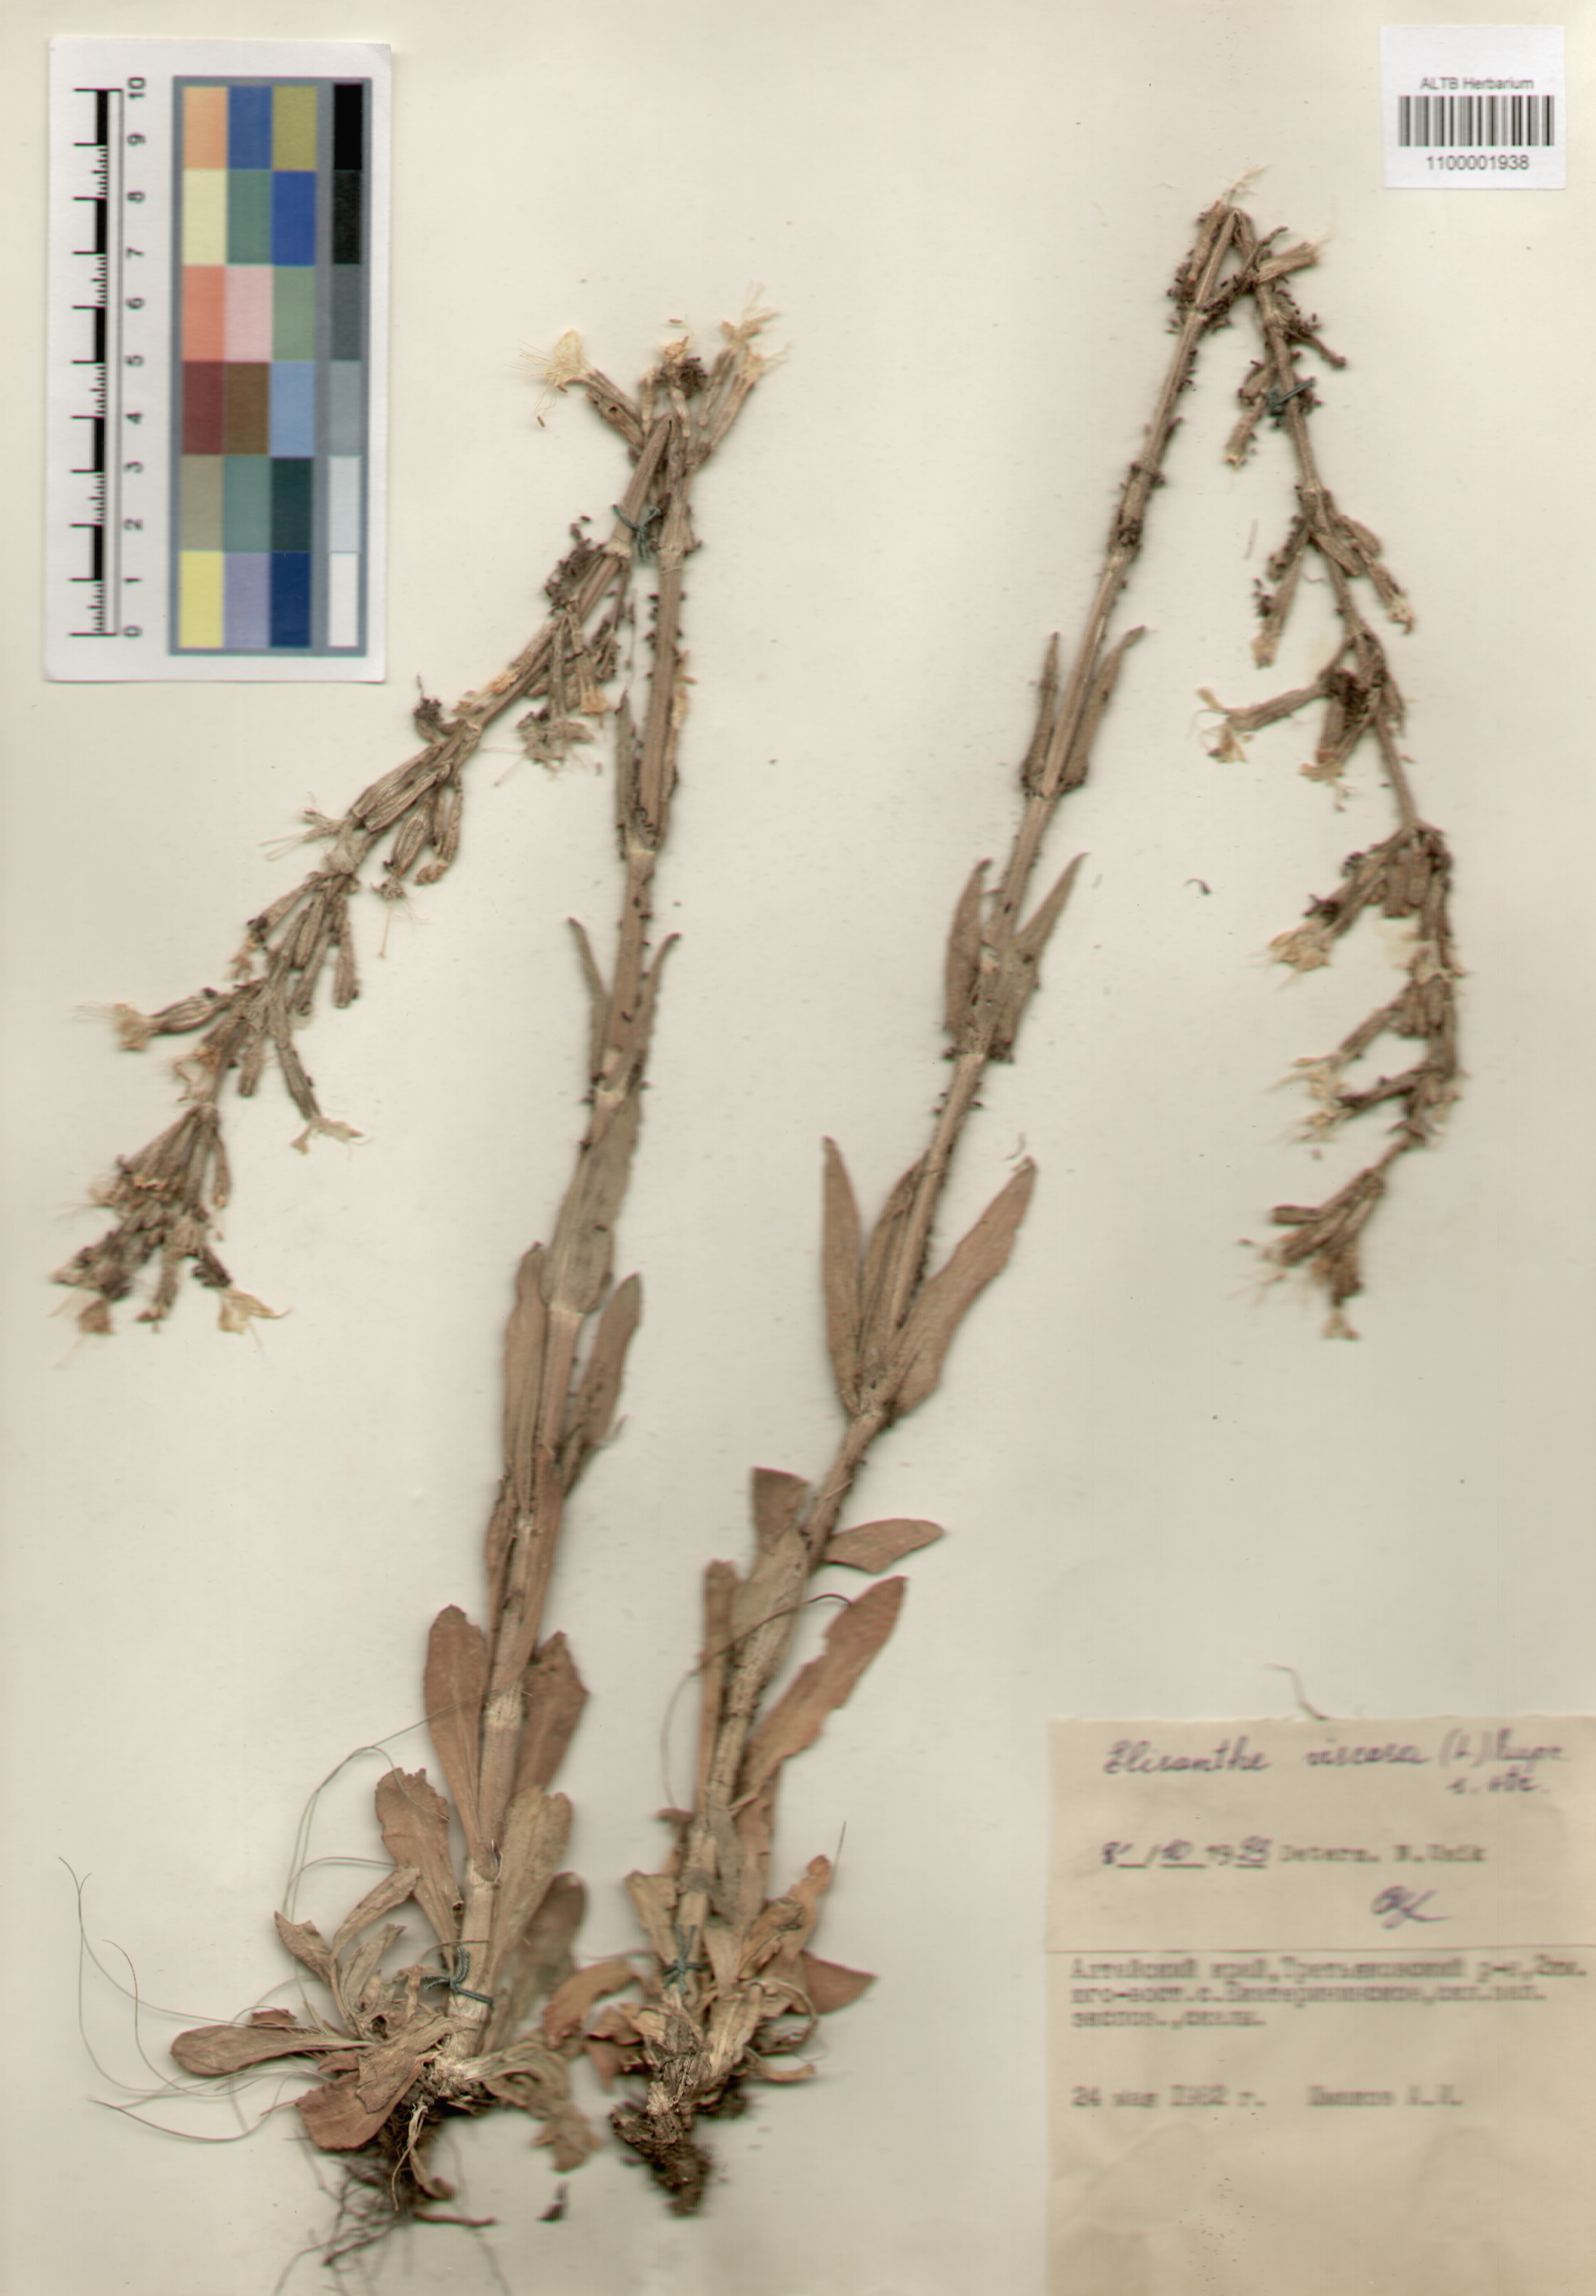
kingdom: Plantae
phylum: Tracheophyta
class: Magnoliopsida
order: Caryophyllales
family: Caryophyllaceae
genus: Silene
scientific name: Silene viscosa
